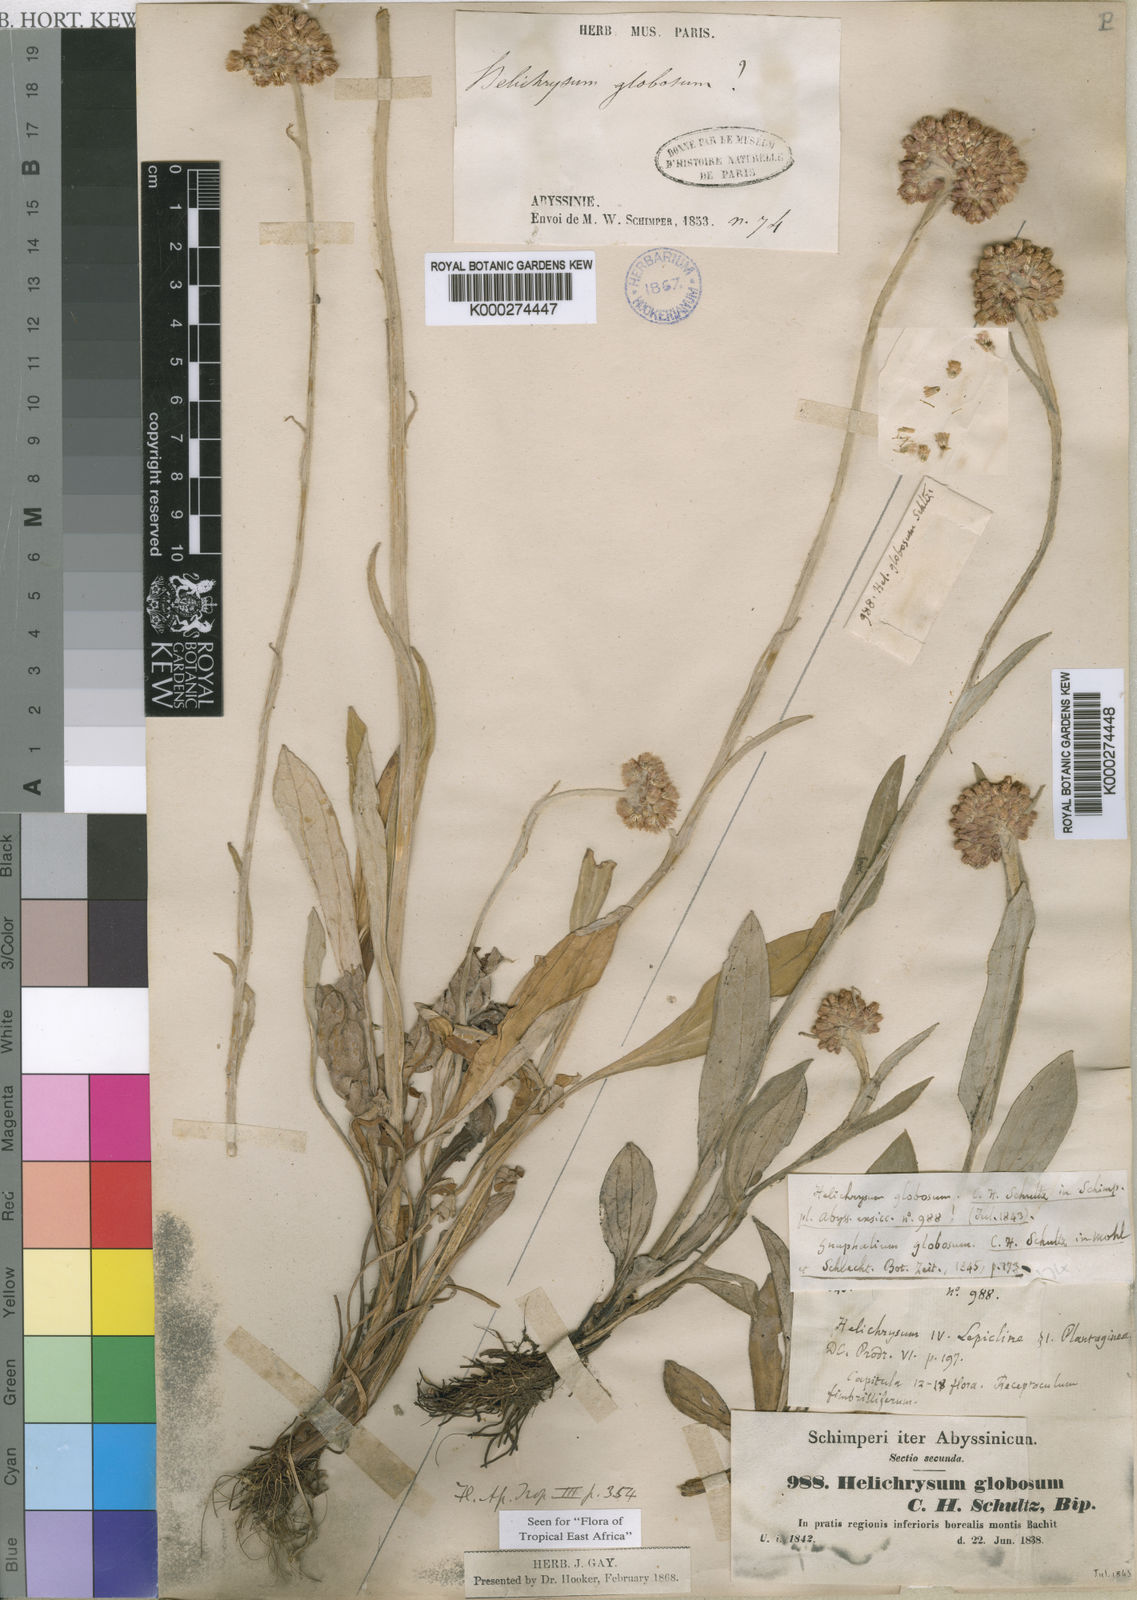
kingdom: Plantae
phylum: Tracheophyta
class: Magnoliopsida
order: Asterales
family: Asteraceae
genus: Helichrysum
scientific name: Helichrysum globosum
